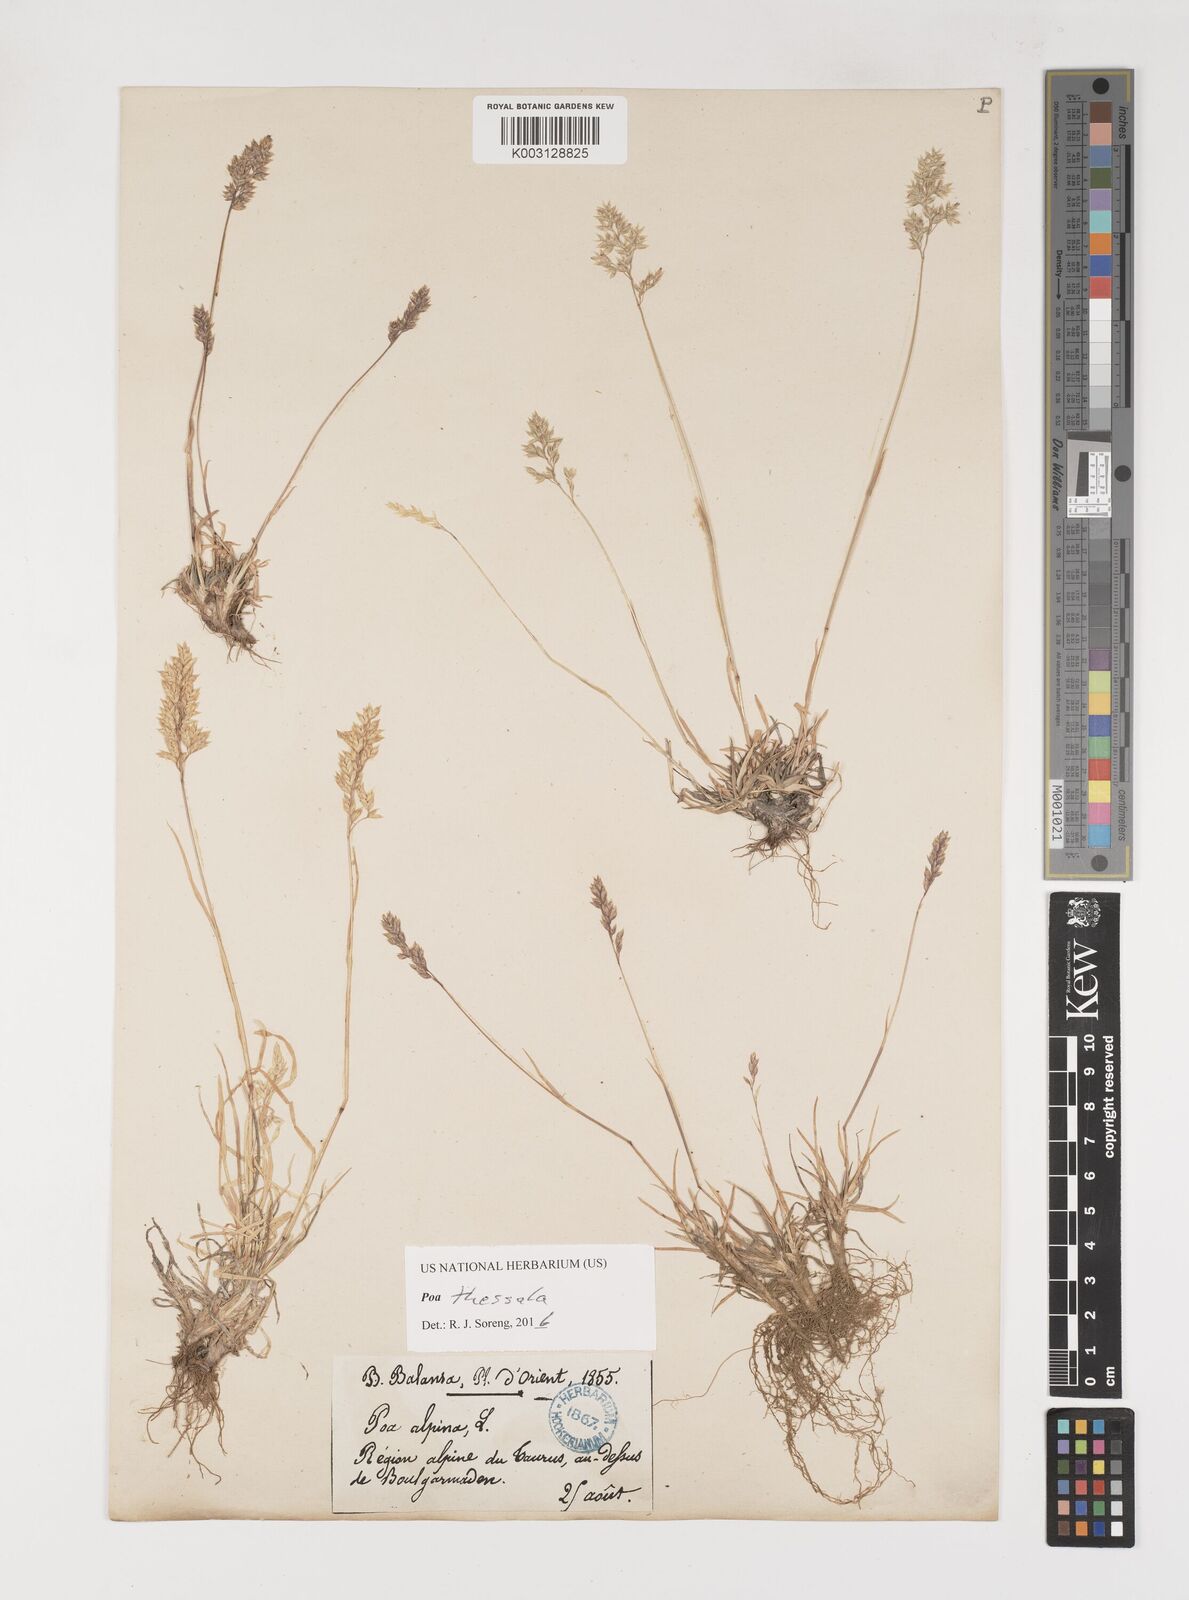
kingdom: Plantae
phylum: Tracheophyta
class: Liliopsida
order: Poales
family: Poaceae
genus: Poa
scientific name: Poa thessala
